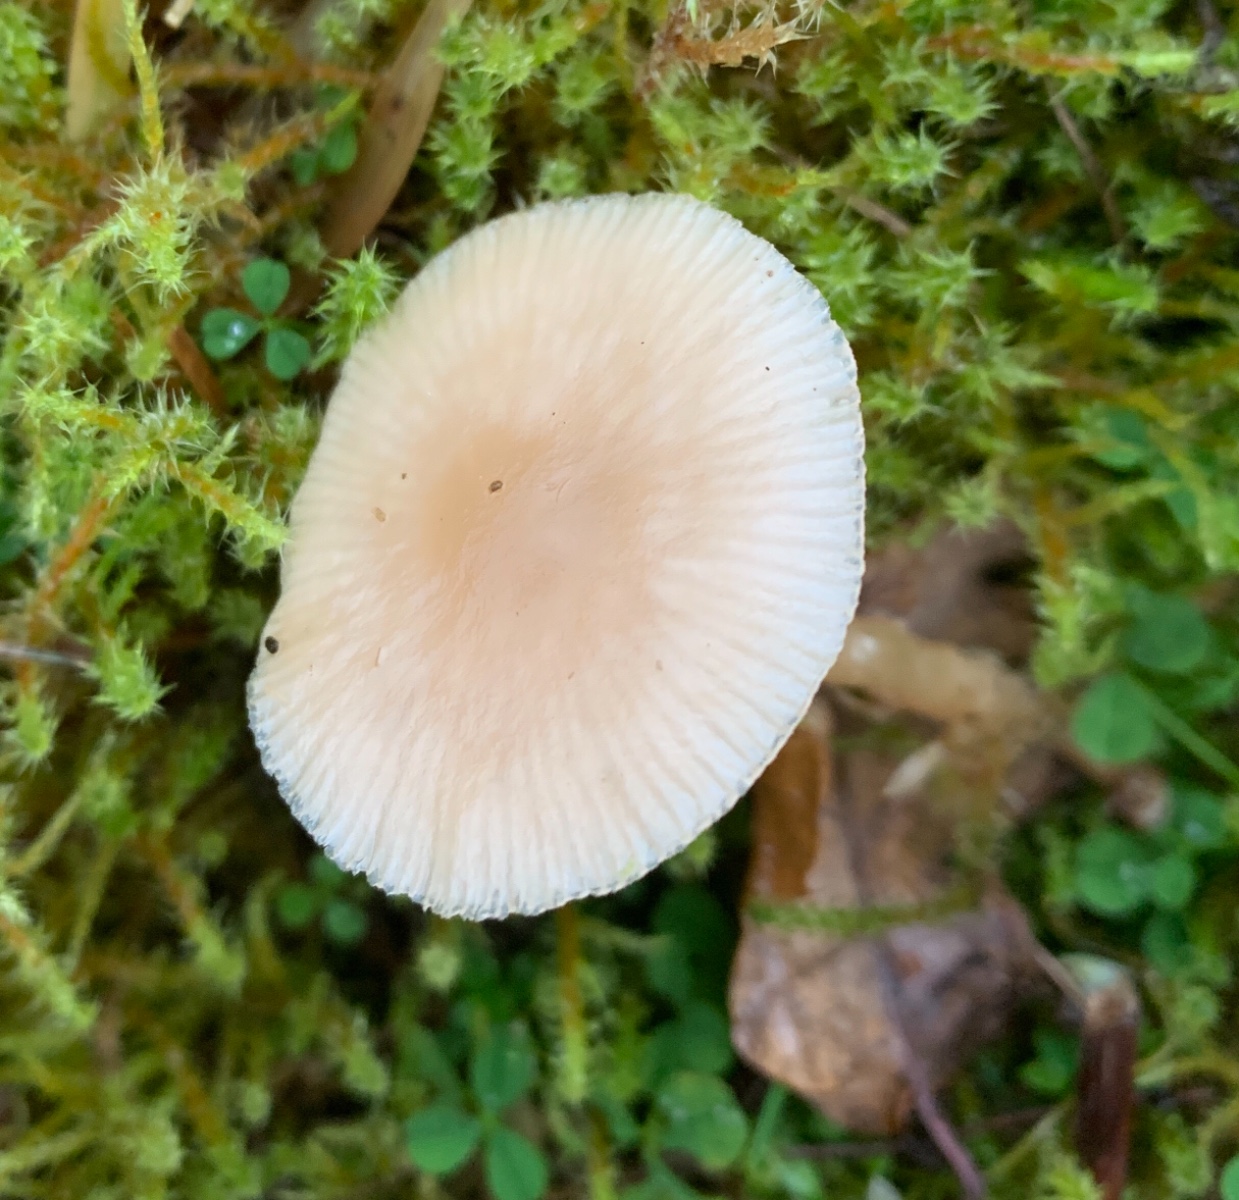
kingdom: Fungi
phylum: Basidiomycota
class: Agaricomycetes
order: Agaricales
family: Tricholomataceae
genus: Clitocybe
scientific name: Clitocybe fragrans
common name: vellugtende tragthat
